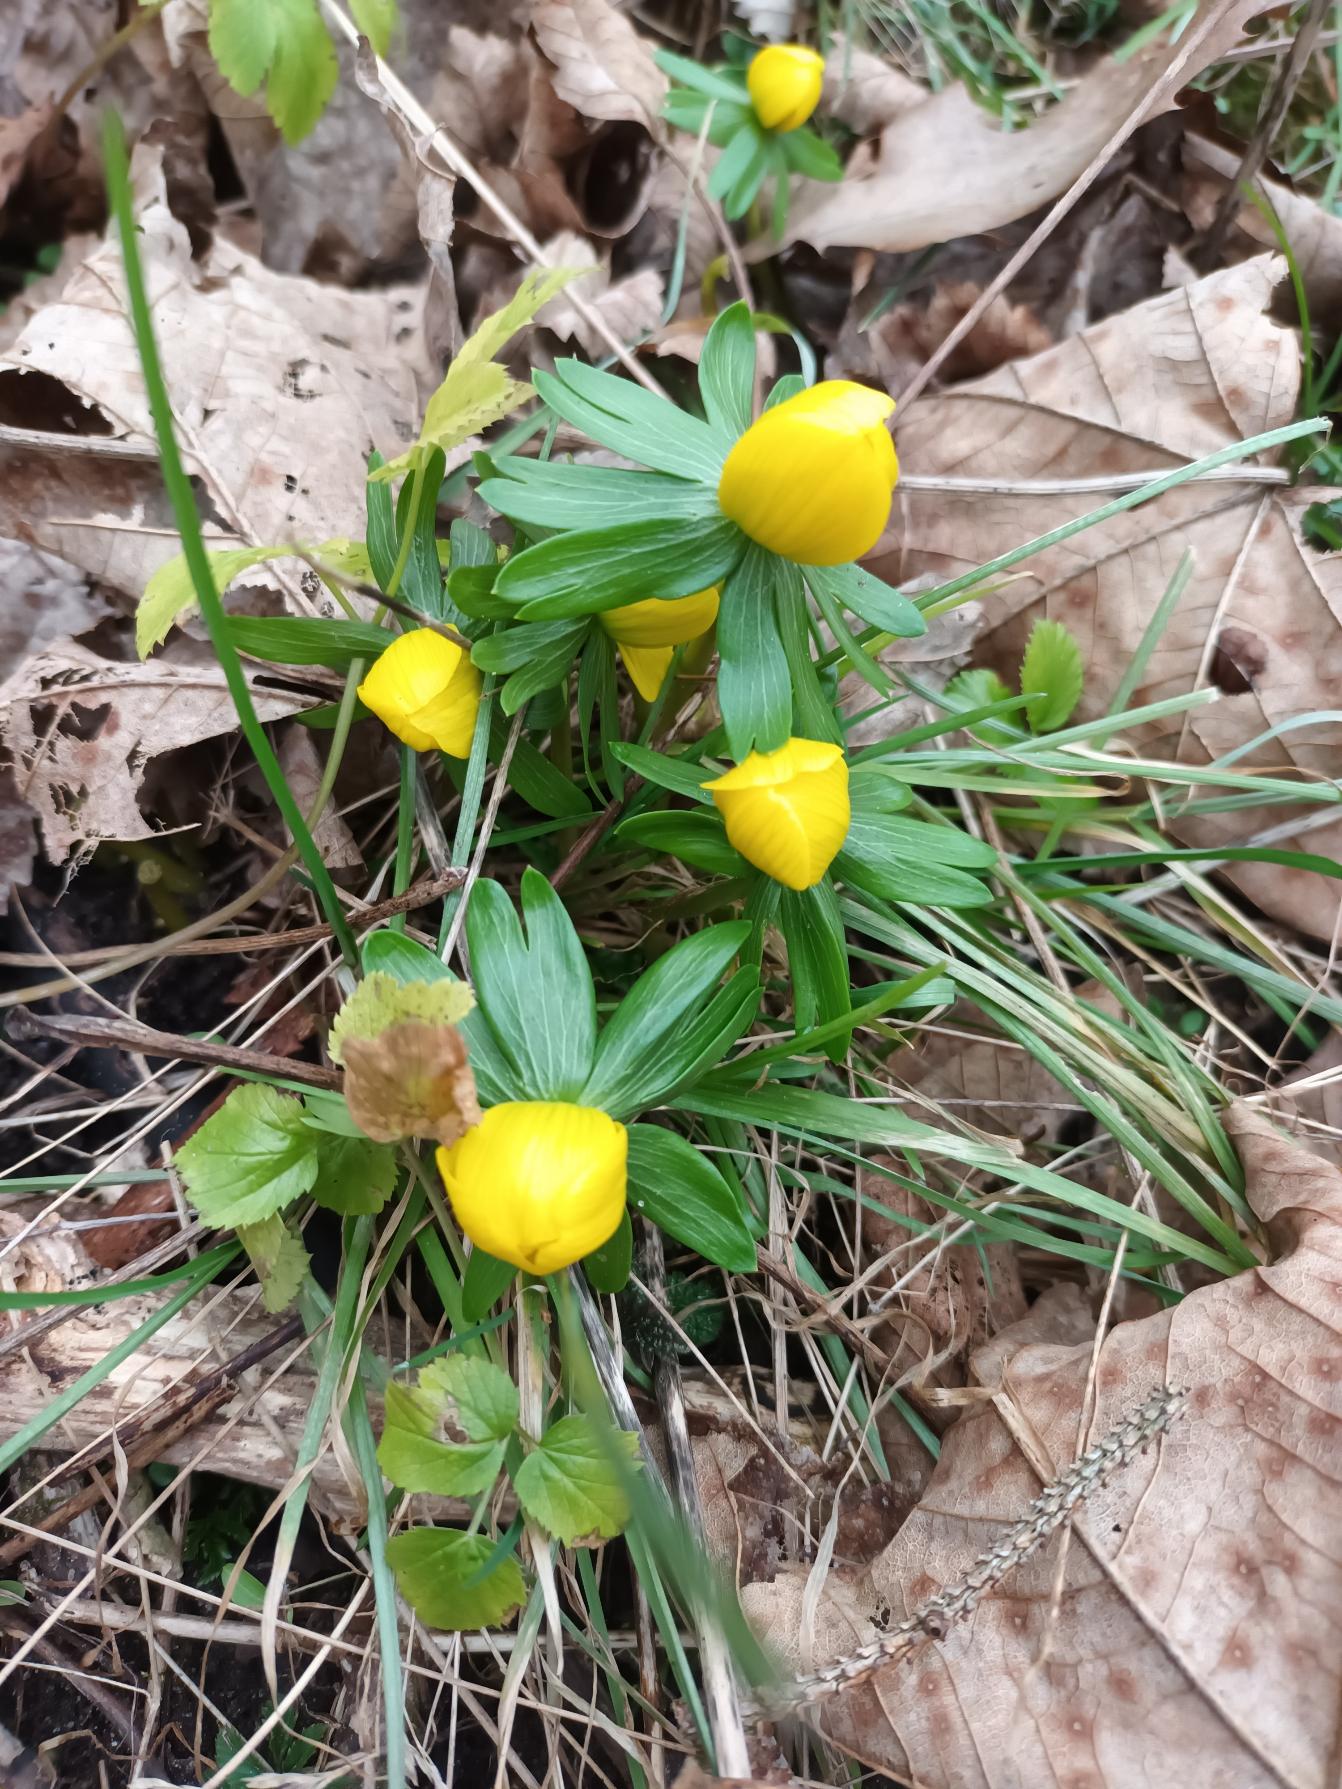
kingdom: Plantae
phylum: Tracheophyta
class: Magnoliopsida
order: Ranunculales
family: Ranunculaceae
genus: Eranthis
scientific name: Eranthis hyemalis
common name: Erantis
